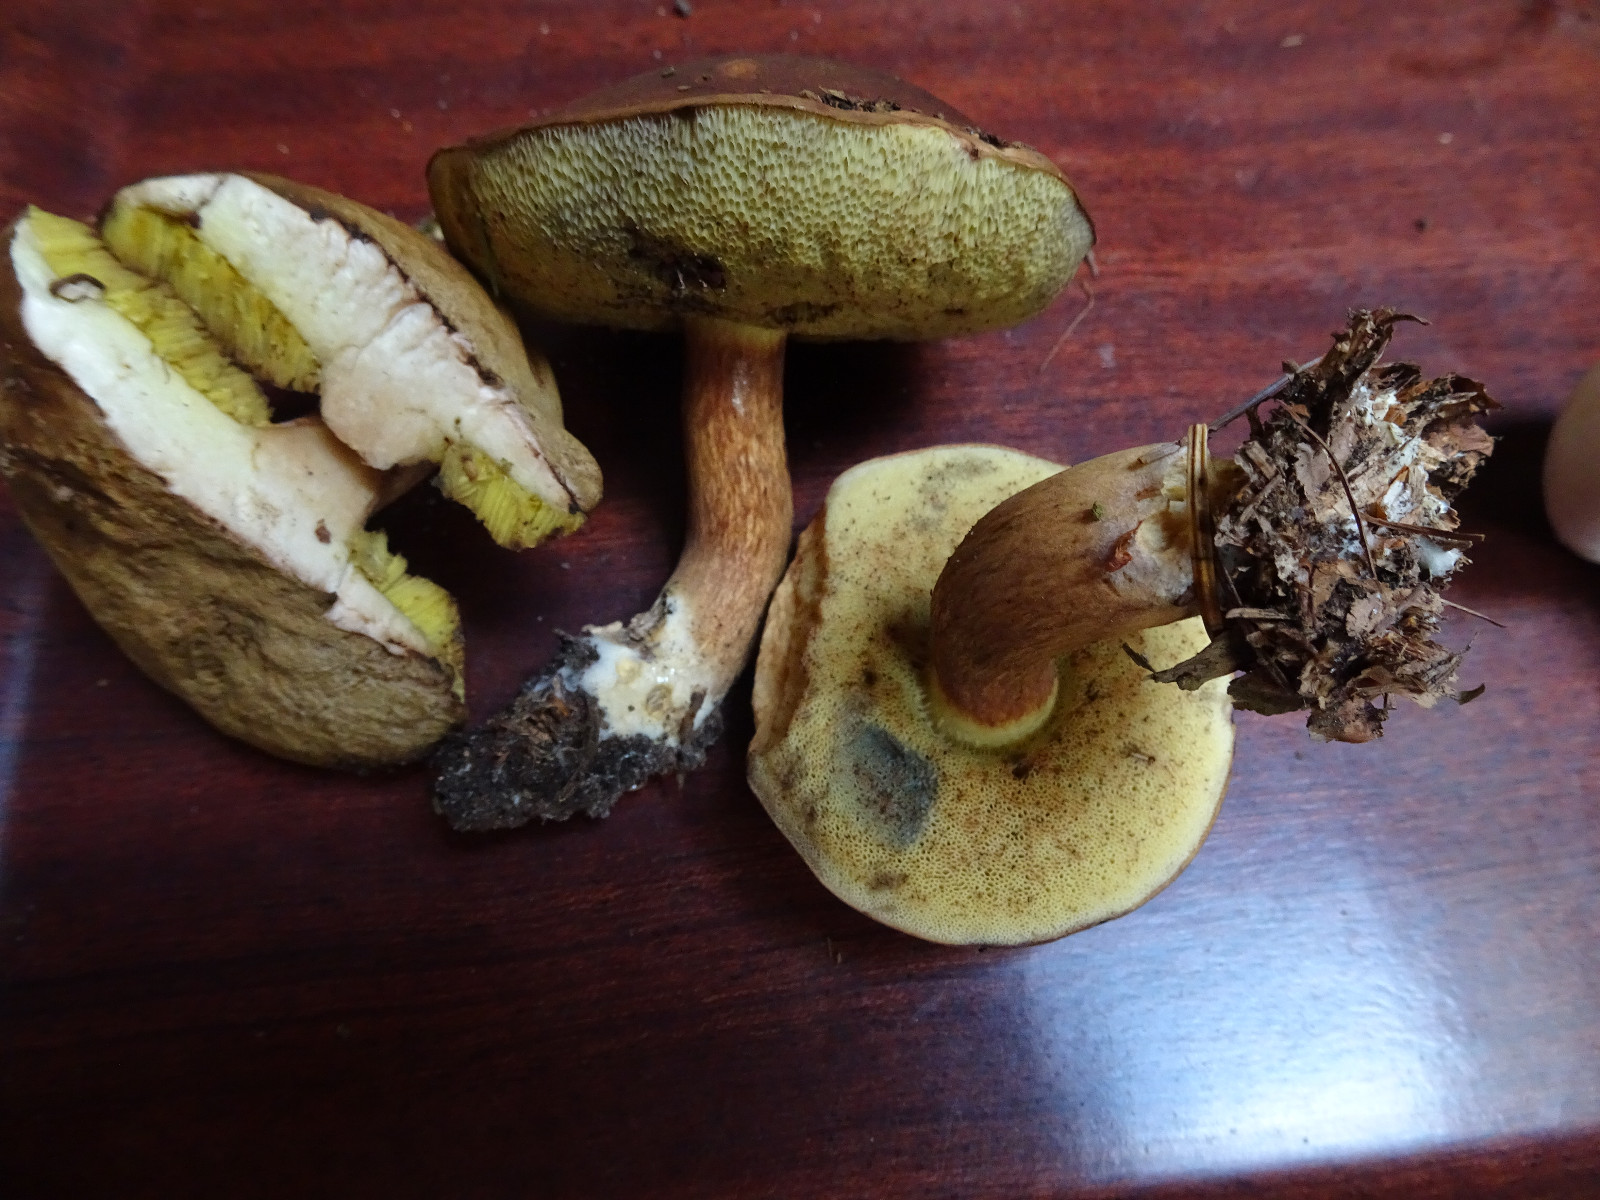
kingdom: Fungi
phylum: Basidiomycota
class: Agaricomycetes
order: Boletales
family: Boletaceae
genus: Imleria
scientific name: Imleria badia
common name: brunstokket rørhat
